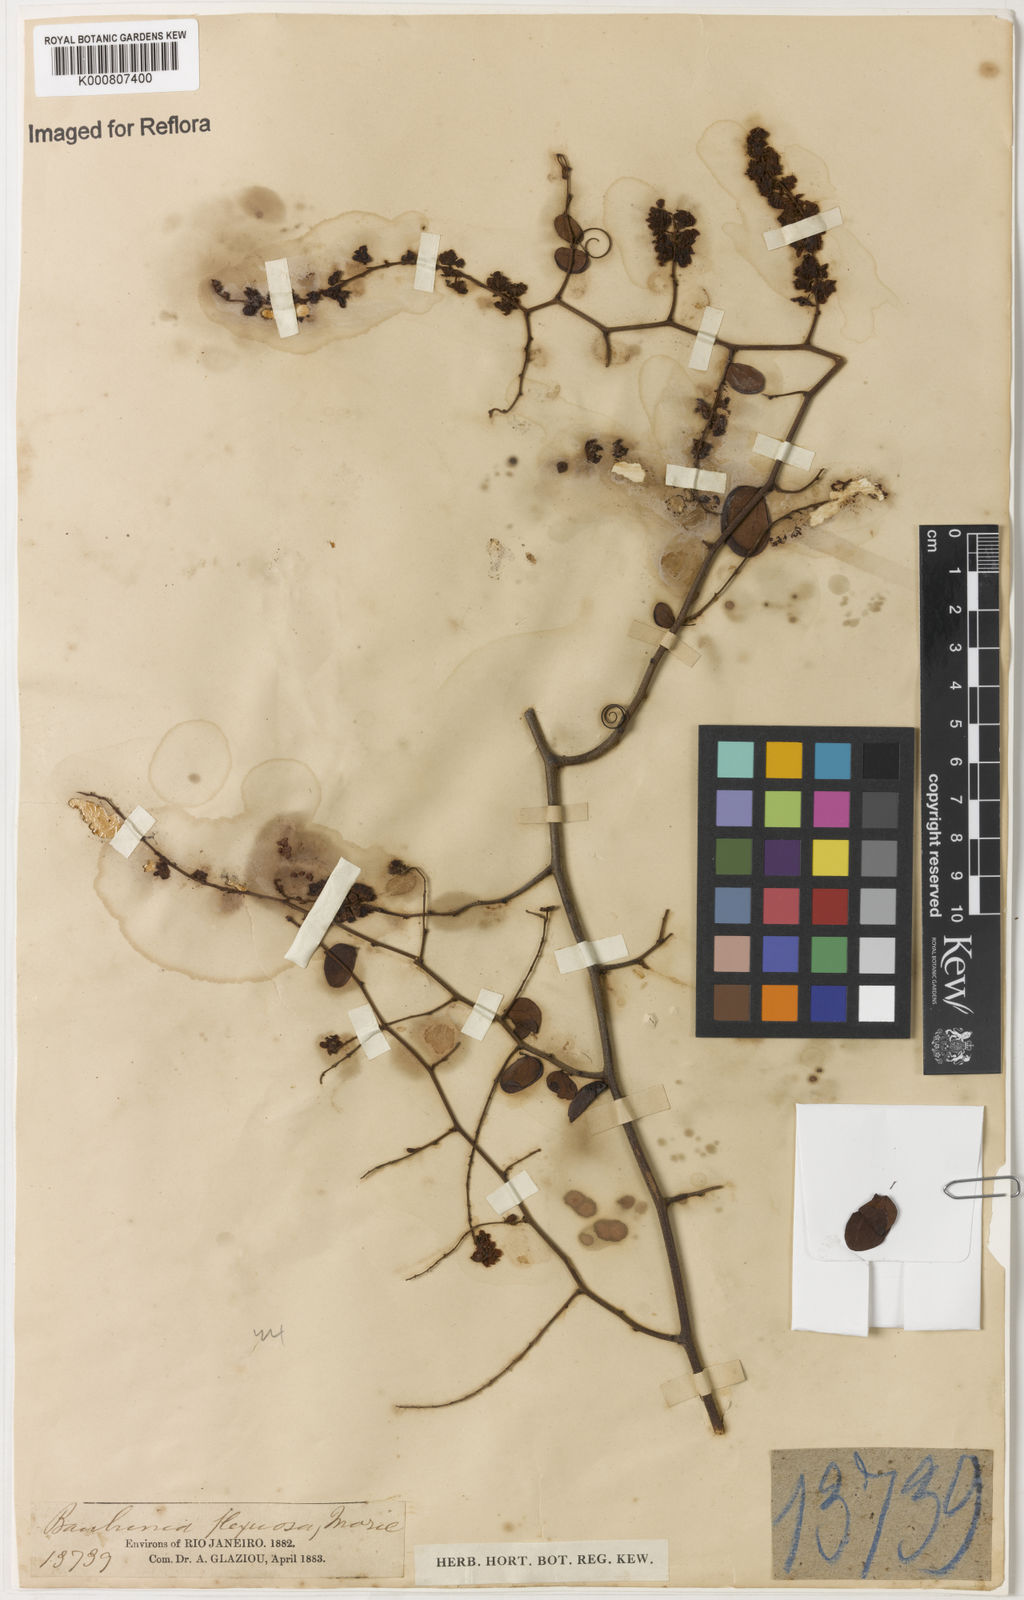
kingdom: Plantae
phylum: Tracheophyta
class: Magnoliopsida
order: Fabales
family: Fabaceae
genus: Schnella
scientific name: Schnella flexuosa
